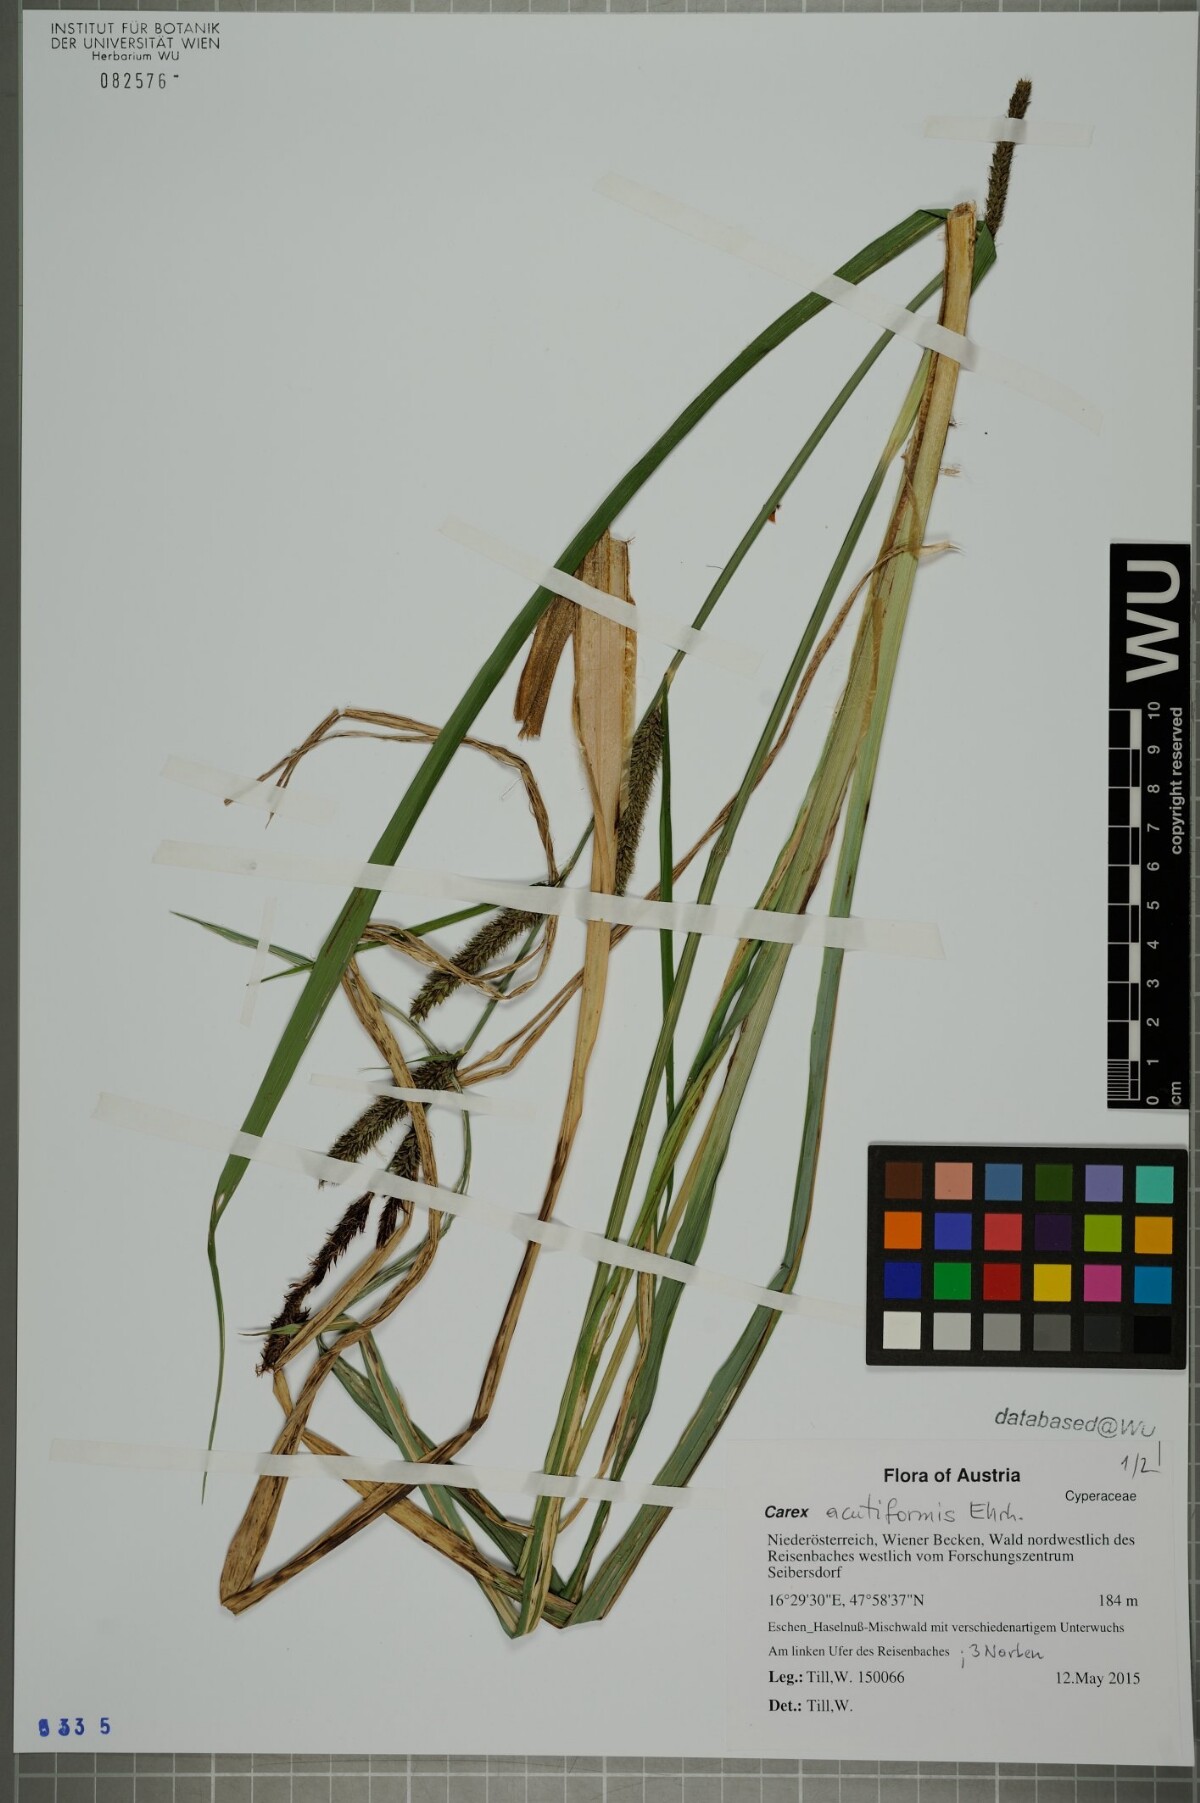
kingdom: Plantae
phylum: Tracheophyta
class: Liliopsida
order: Poales
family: Cyperaceae
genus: Carex
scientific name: Carex acutiformis
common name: Lesser pond-sedge
